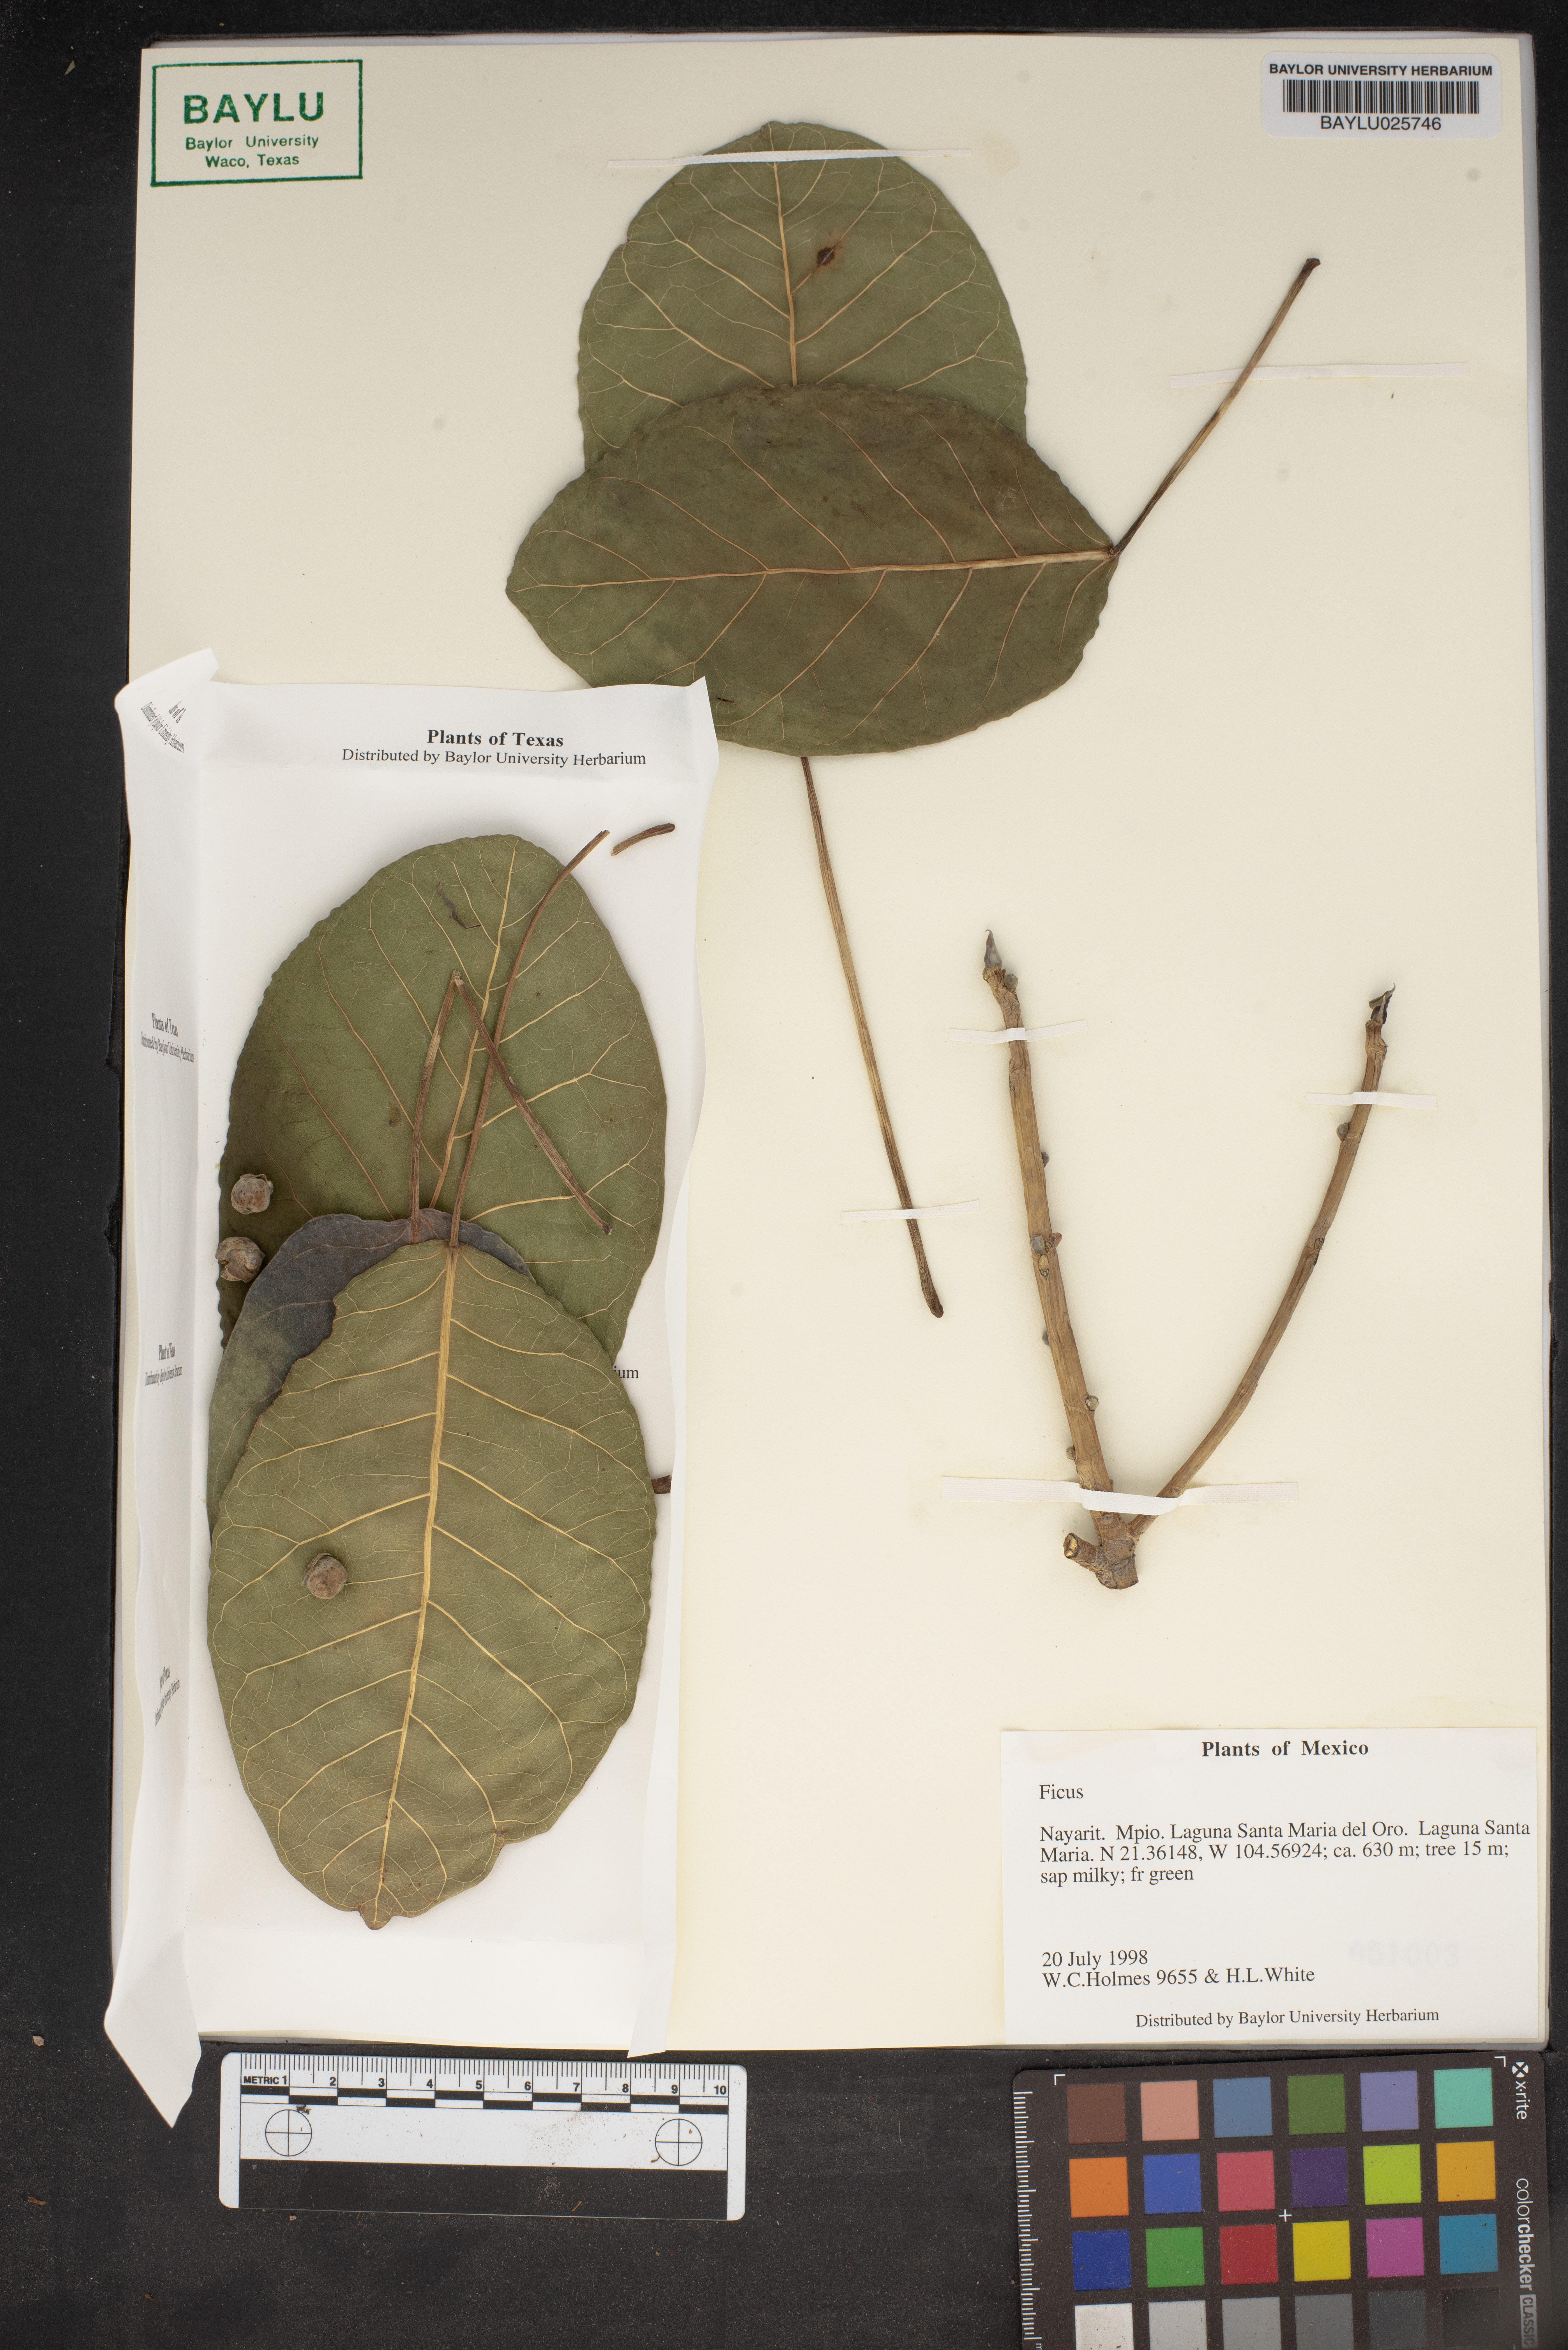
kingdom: Plantae
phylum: Tracheophyta
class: Magnoliopsida
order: Rosales
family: Moraceae
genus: Ficus
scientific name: Ficus
